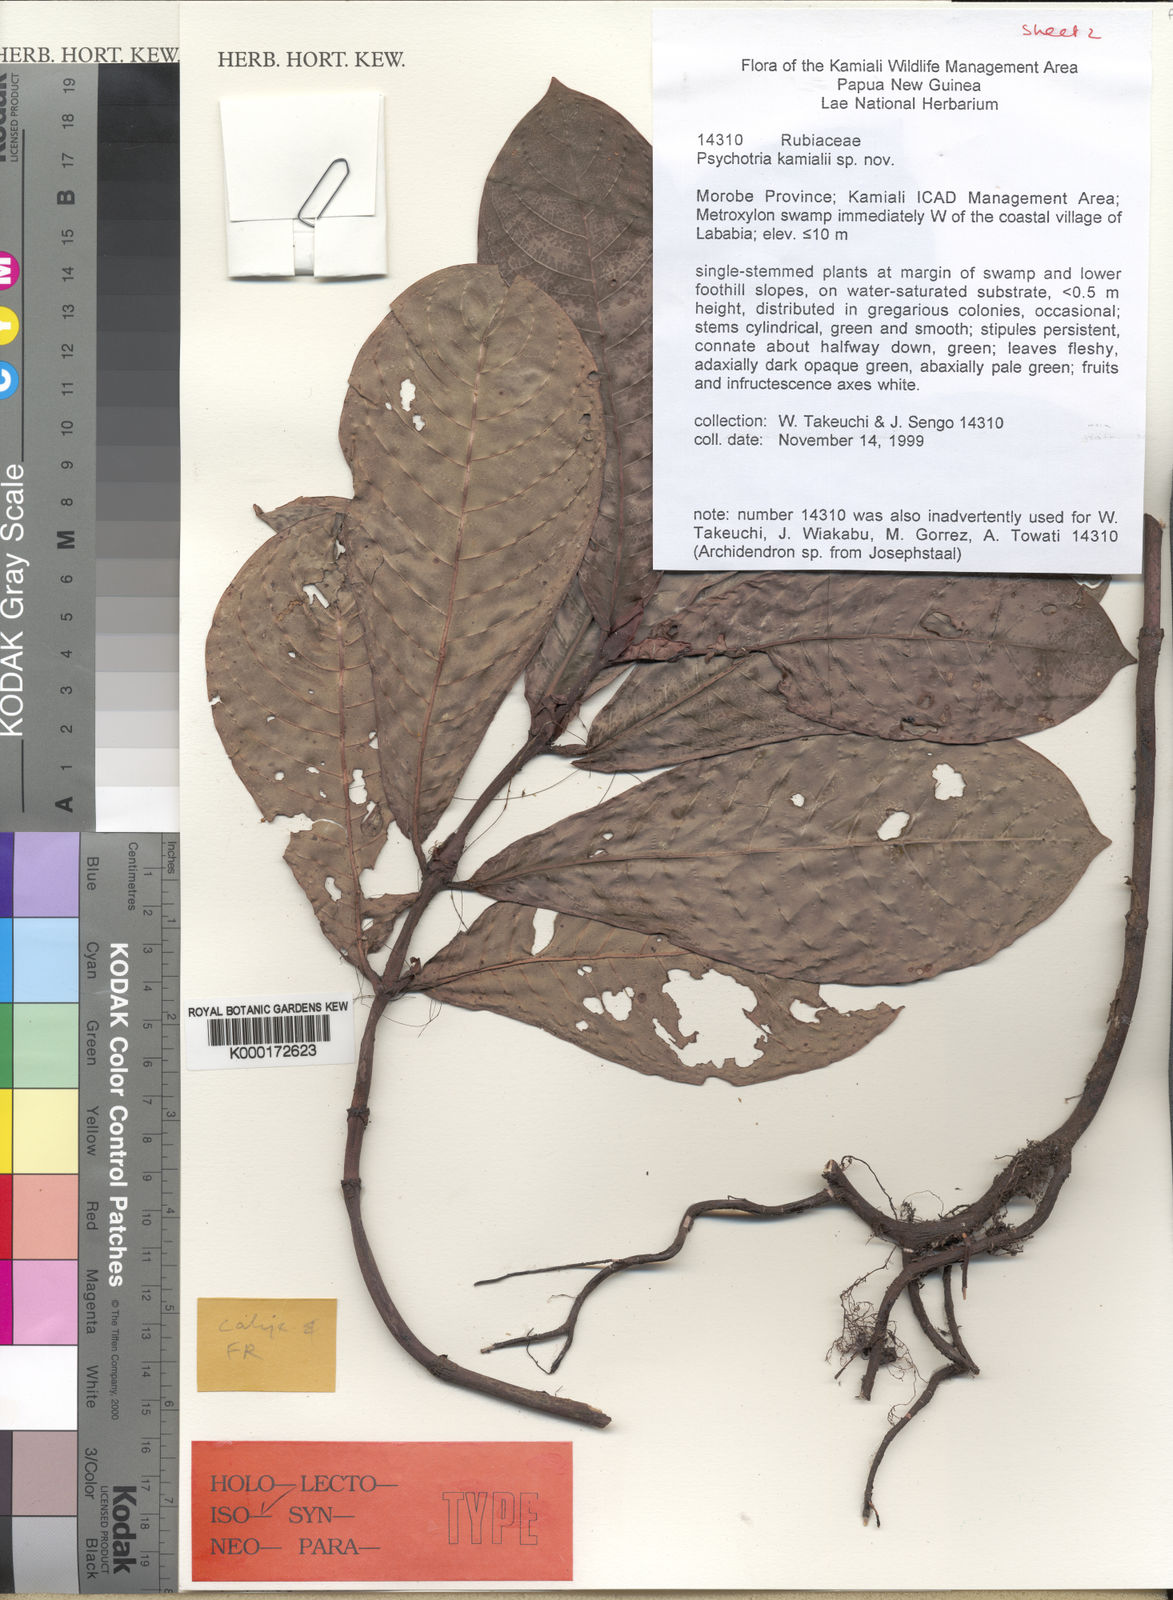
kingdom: Plantae
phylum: Tracheophyta
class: Magnoliopsida
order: Gentianales
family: Rubiaceae
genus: Psychotria
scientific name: Psychotria kamialii
